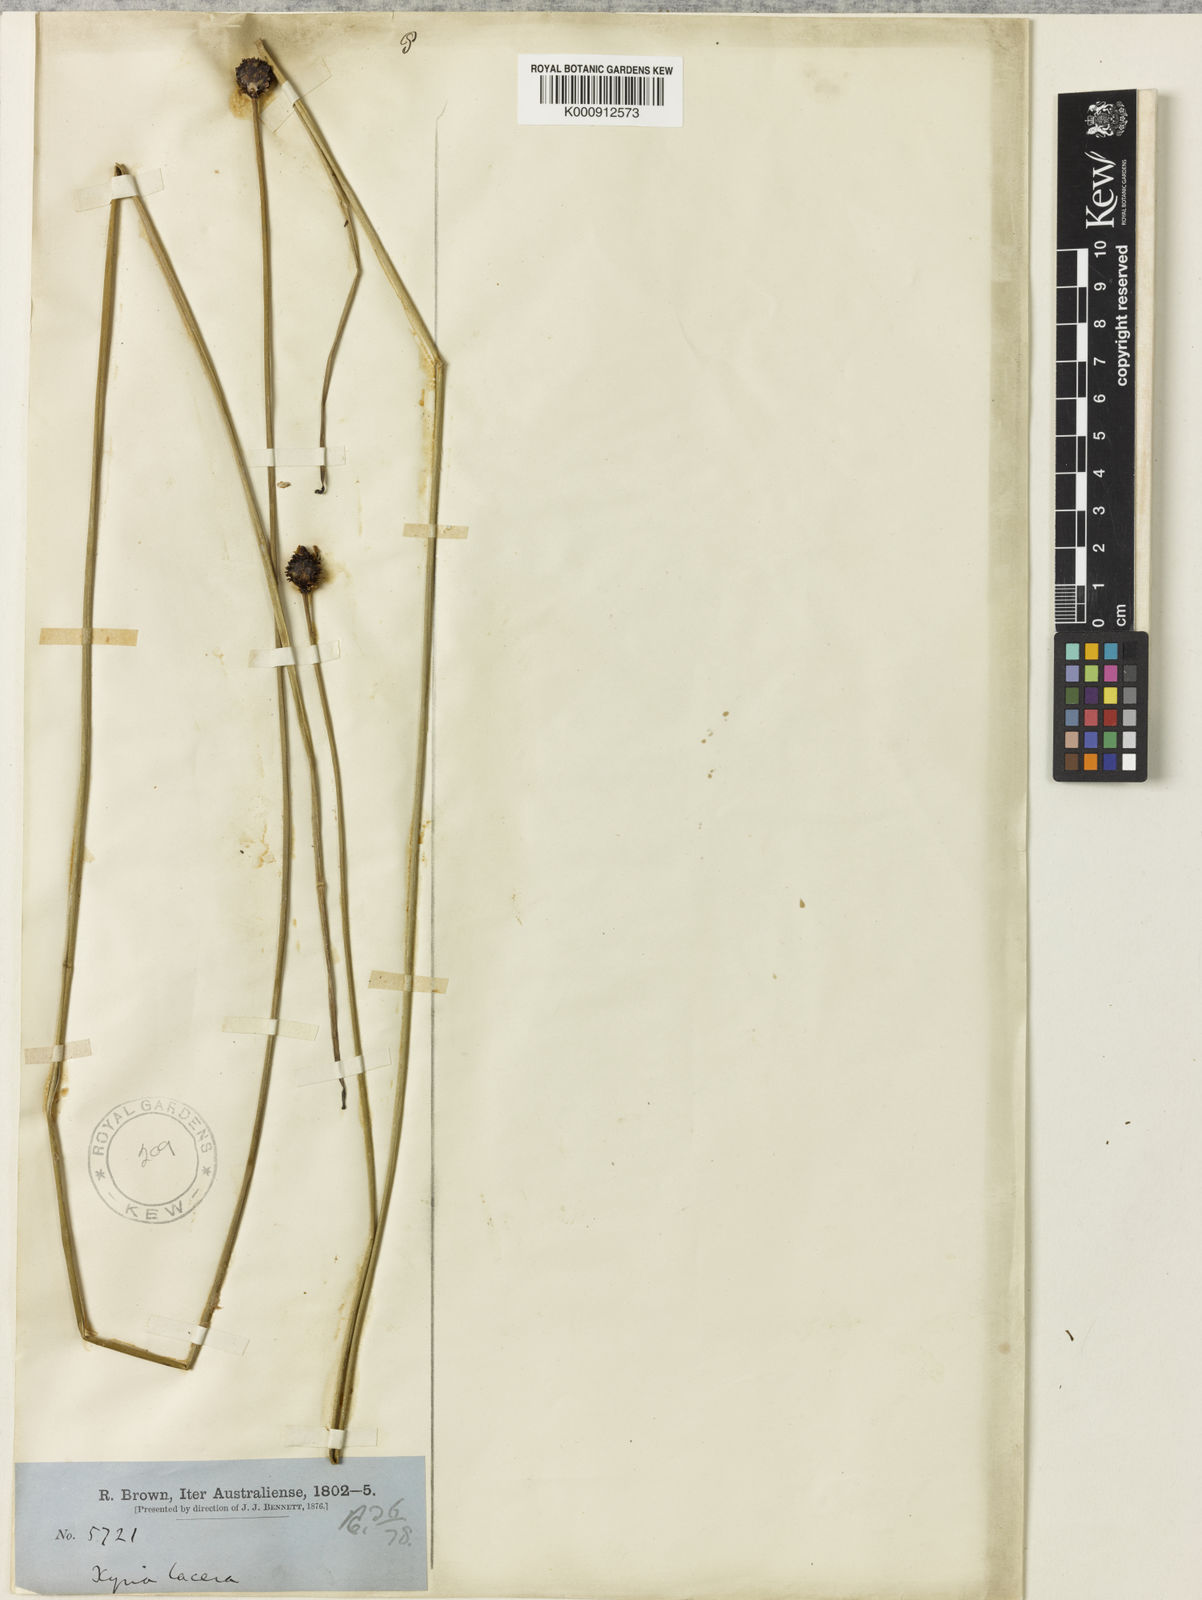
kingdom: Plantae
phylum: Tracheophyta
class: Liliopsida
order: Poales
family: Xyridaceae
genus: Xyris
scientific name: Xyris
